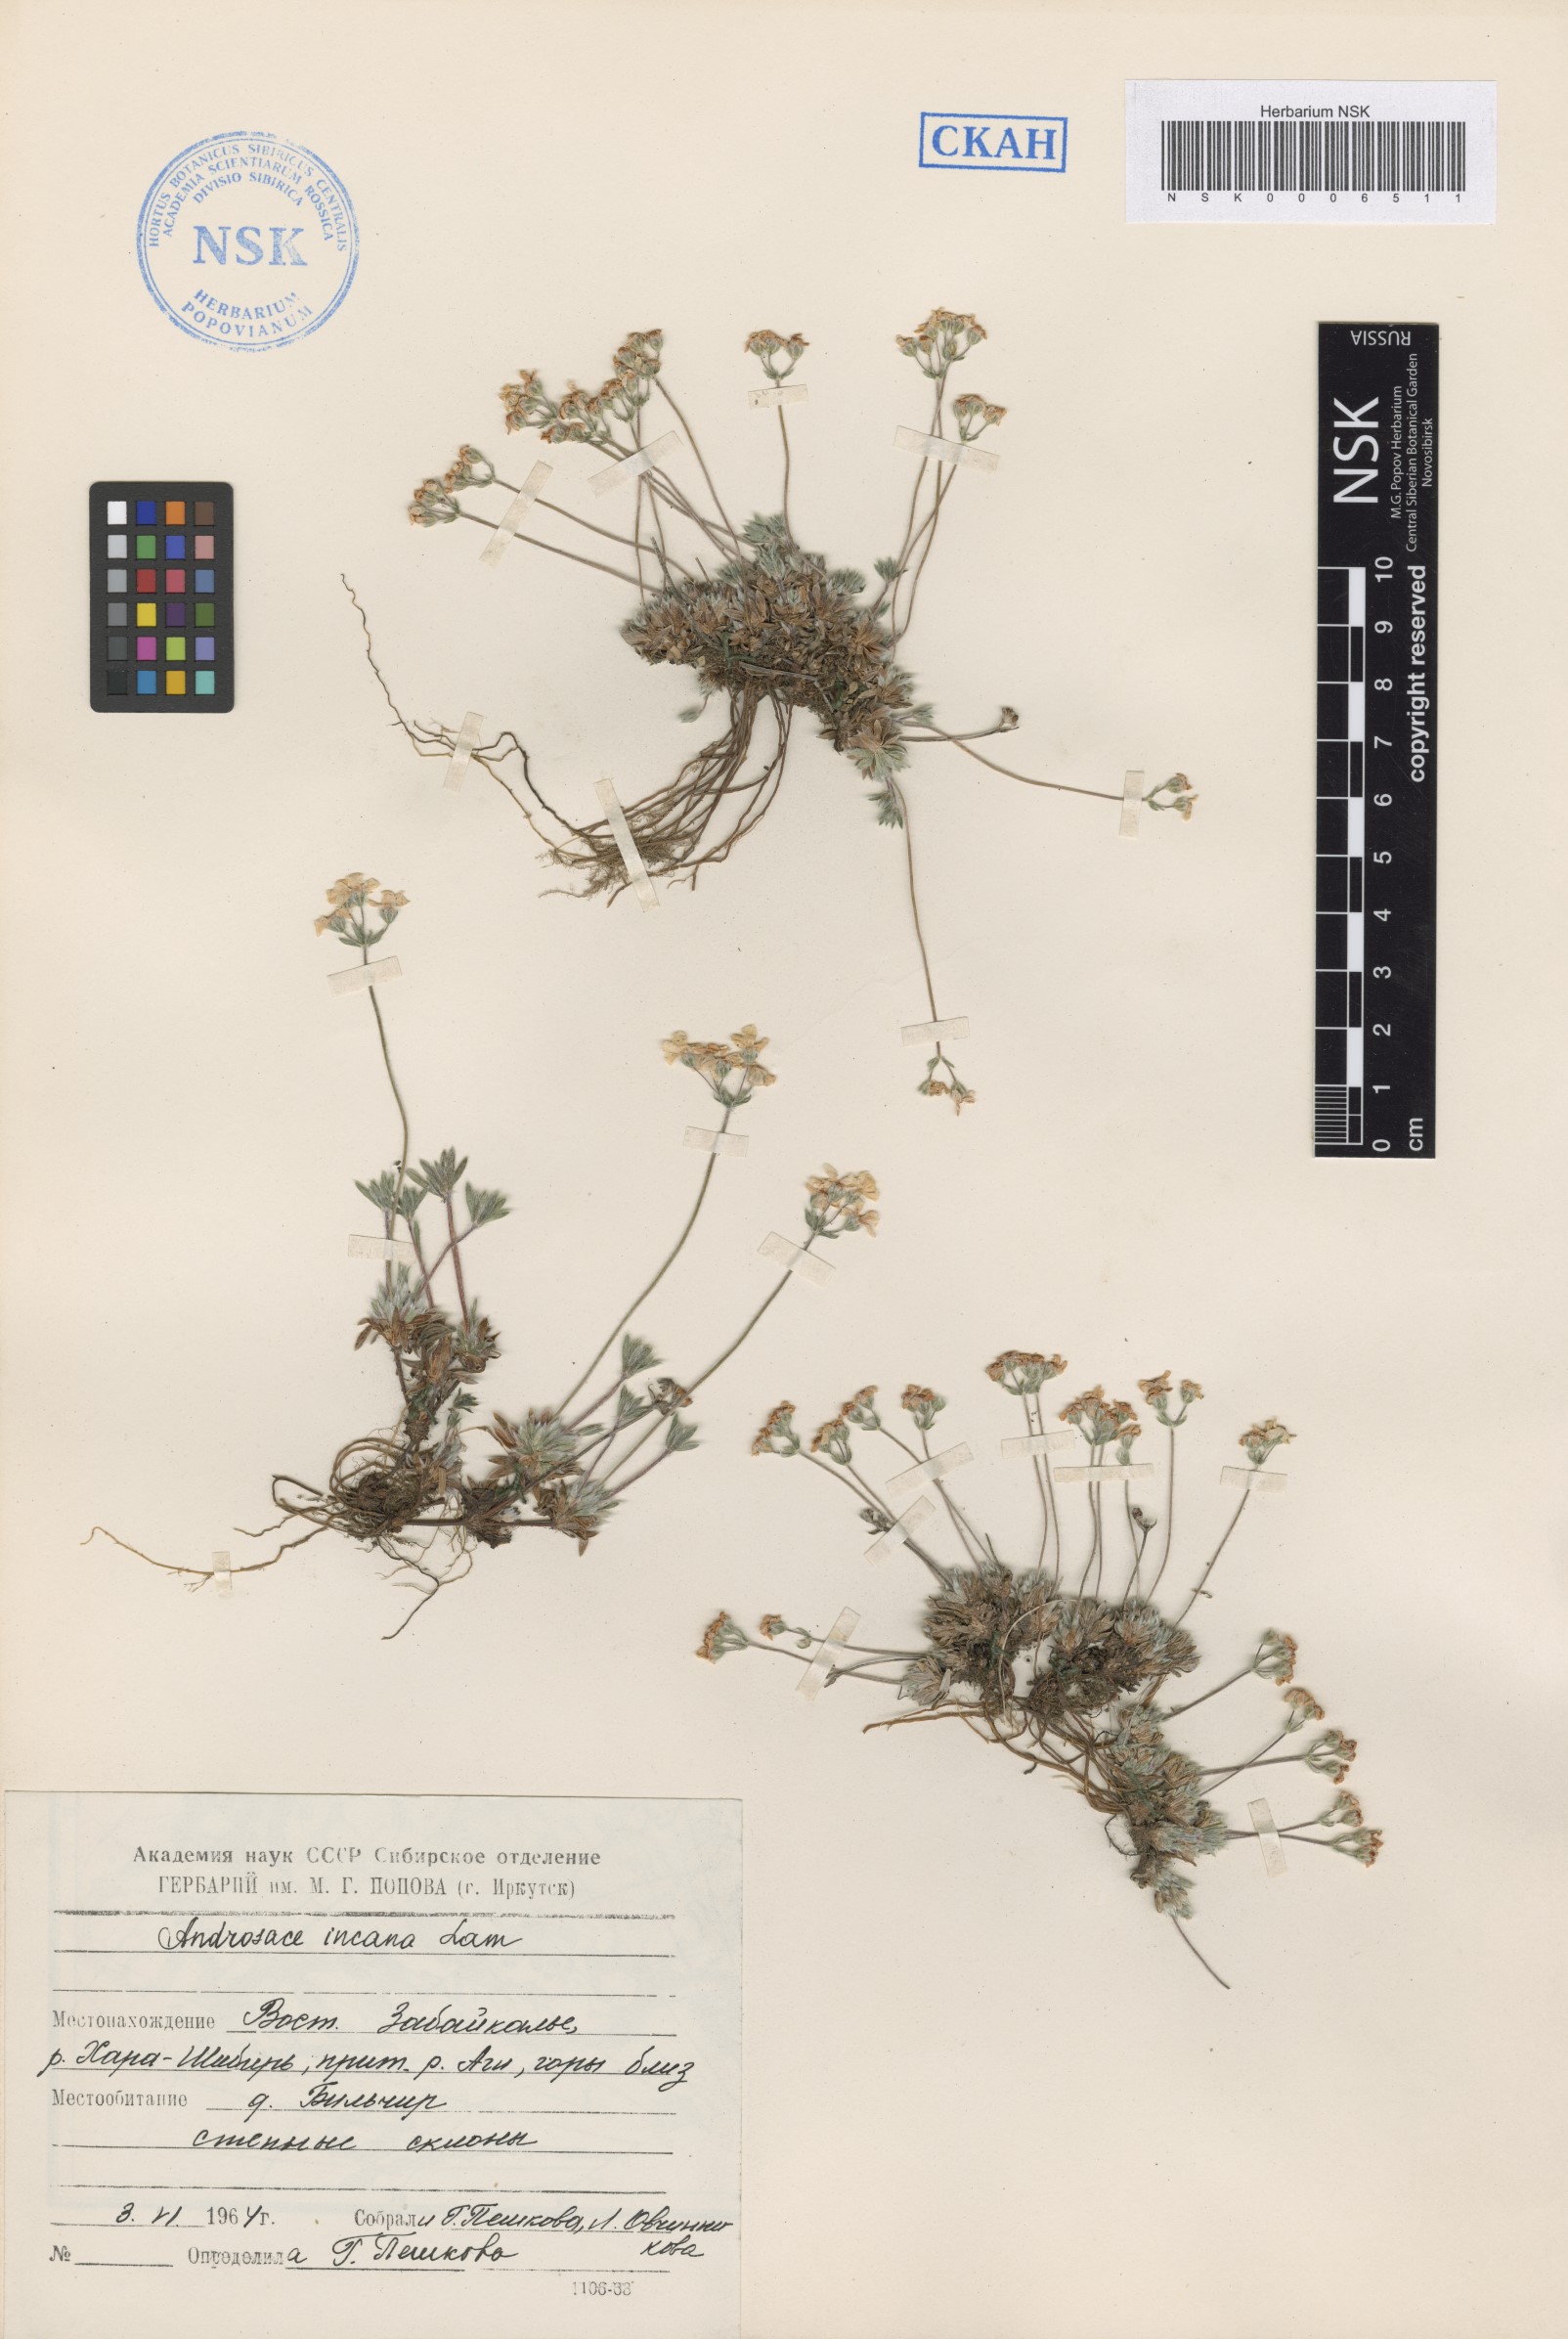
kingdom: Plantae
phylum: Tracheophyta
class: Magnoliopsida
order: Ericales
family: Primulaceae
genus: Androsace
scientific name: Androsace incana
